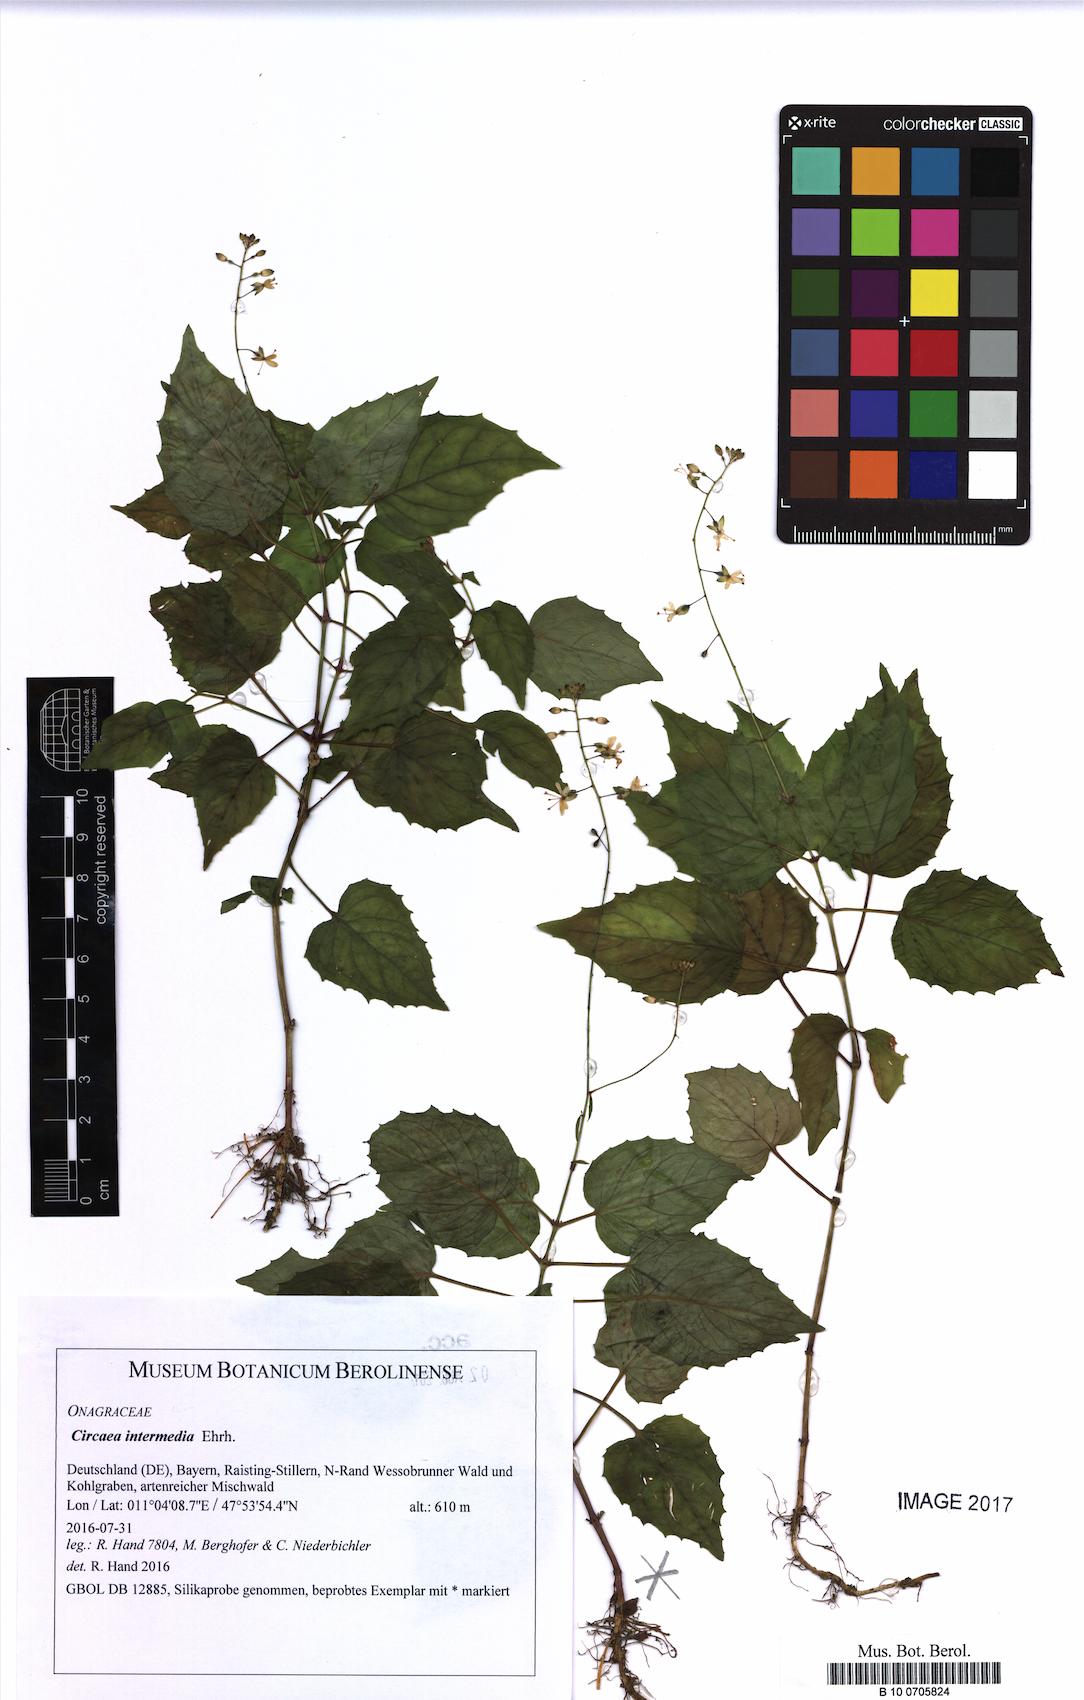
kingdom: Plantae
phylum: Tracheophyta
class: Magnoliopsida
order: Myrtales
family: Onagraceae
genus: Circaea
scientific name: Circaea intermedia
